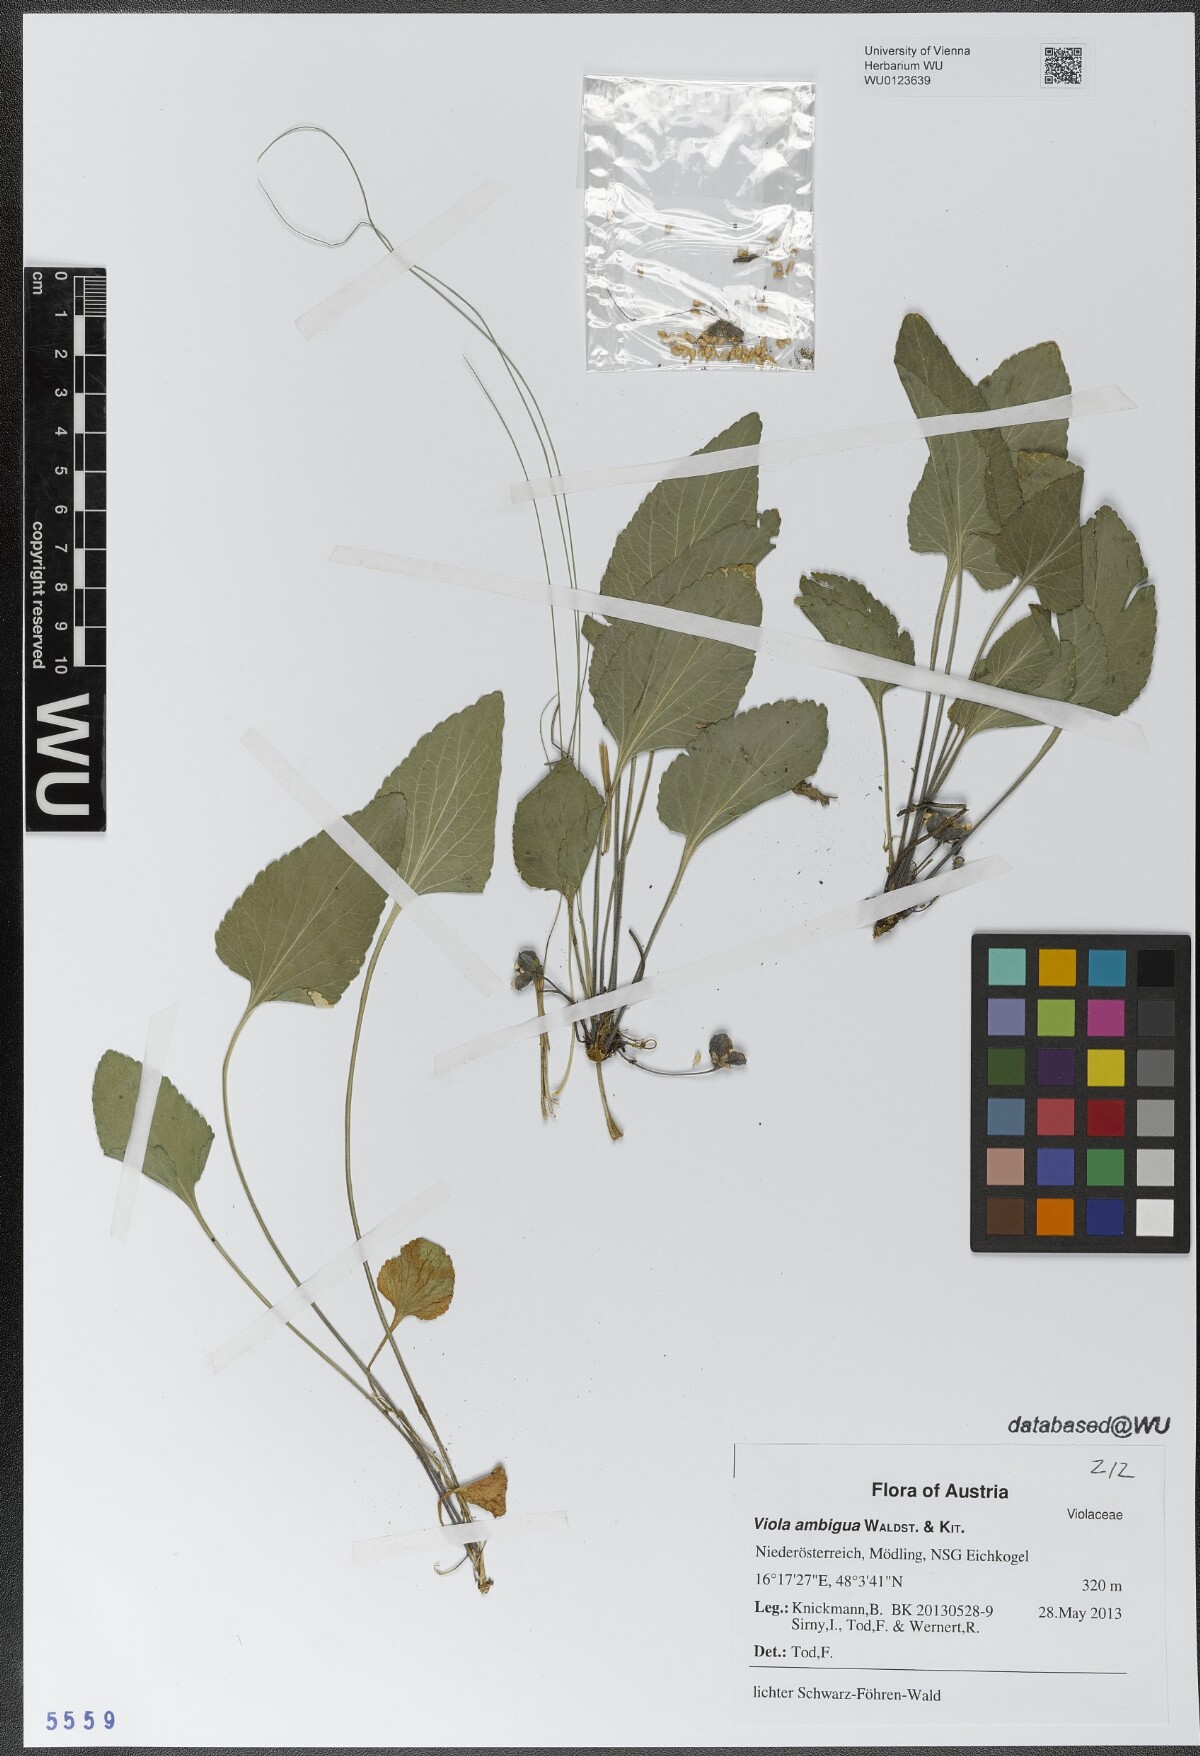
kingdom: Plantae
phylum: Tracheophyta
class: Magnoliopsida
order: Malpighiales
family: Violaceae
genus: Viola
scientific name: Viola ambigua
